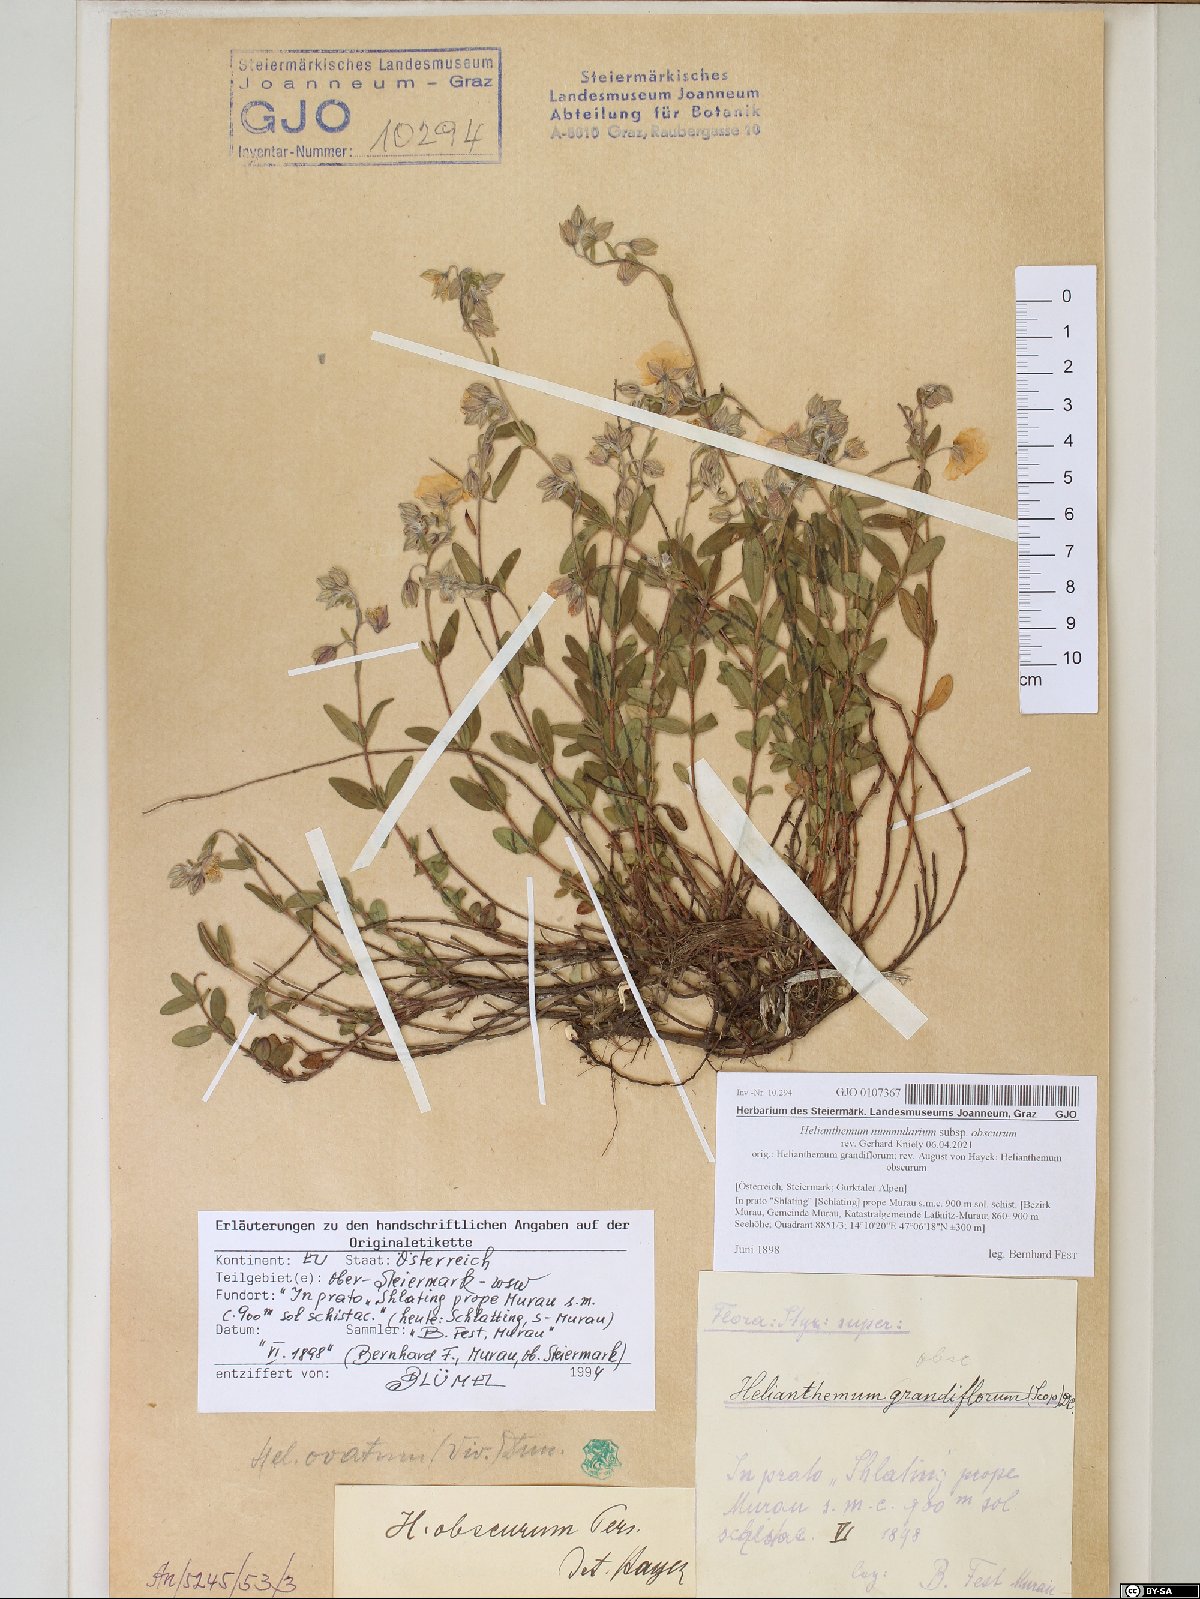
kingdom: Plantae
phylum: Tracheophyta
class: Magnoliopsida
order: Malvales
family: Cistaceae
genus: Helianthemum
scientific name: Helianthemum nummularium
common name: Common rock-rose
